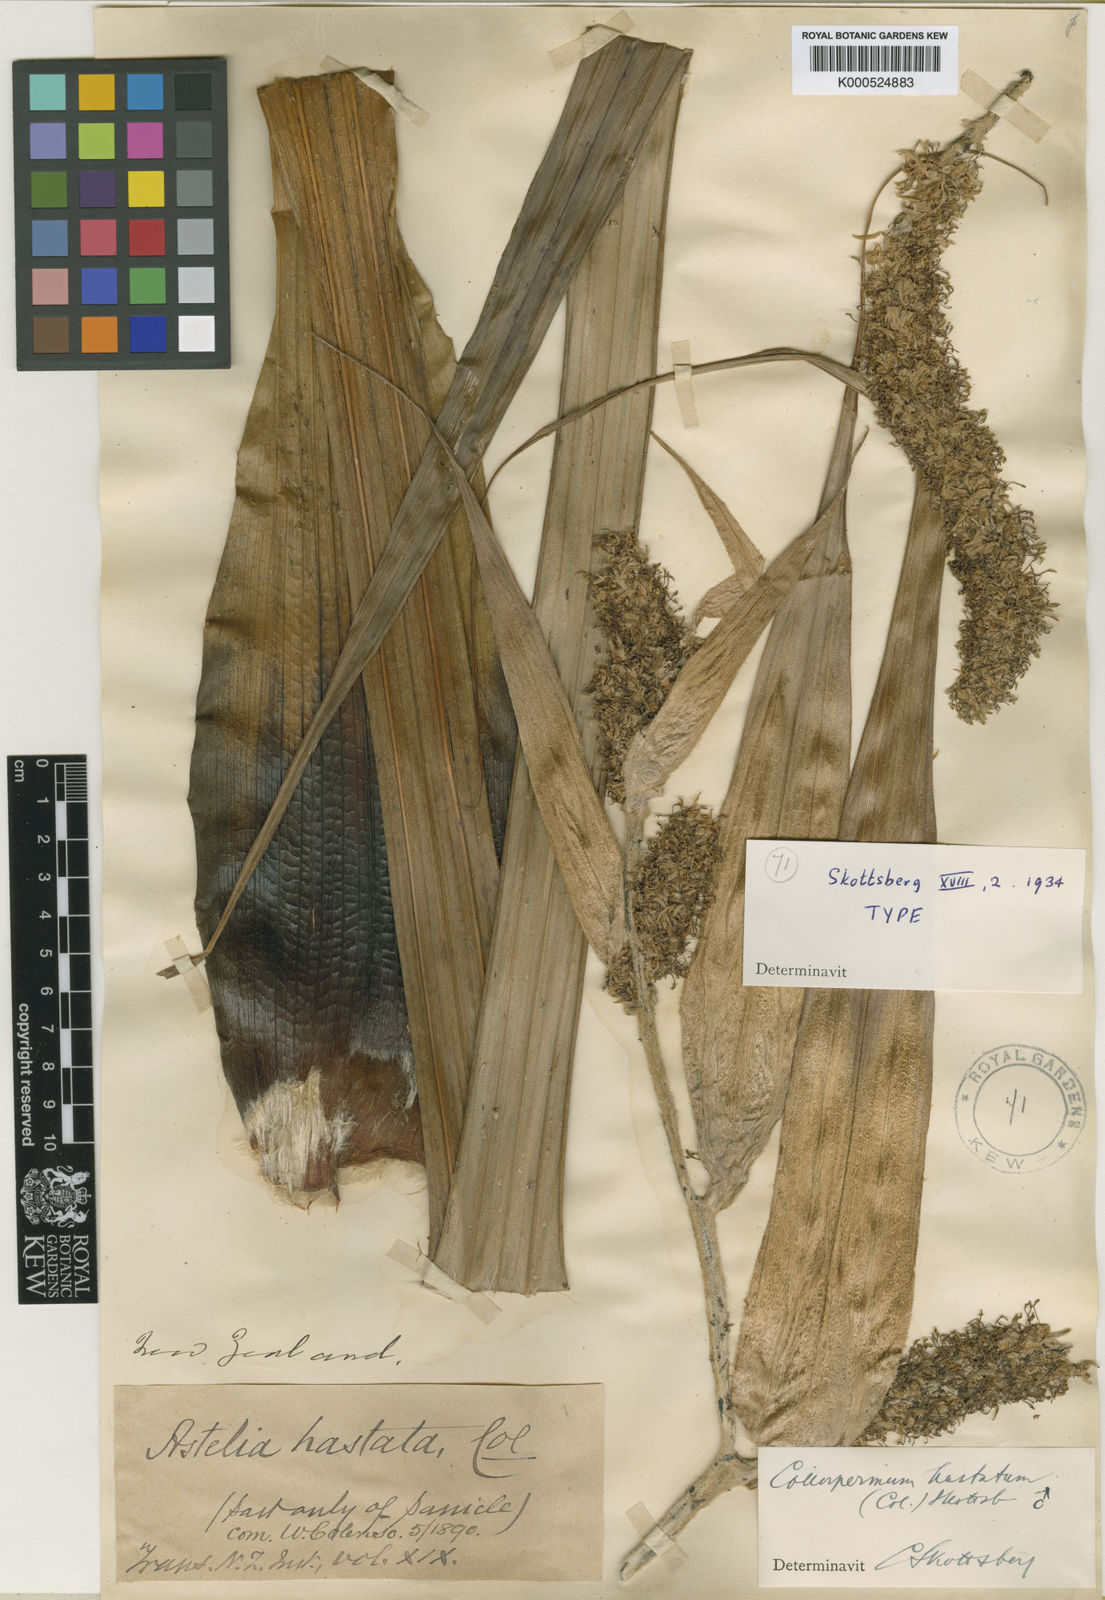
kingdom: Plantae
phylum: Tracheophyta
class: Liliopsida
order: Asparagales
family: Asteliaceae
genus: Astelia
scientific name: Astelia hastata
